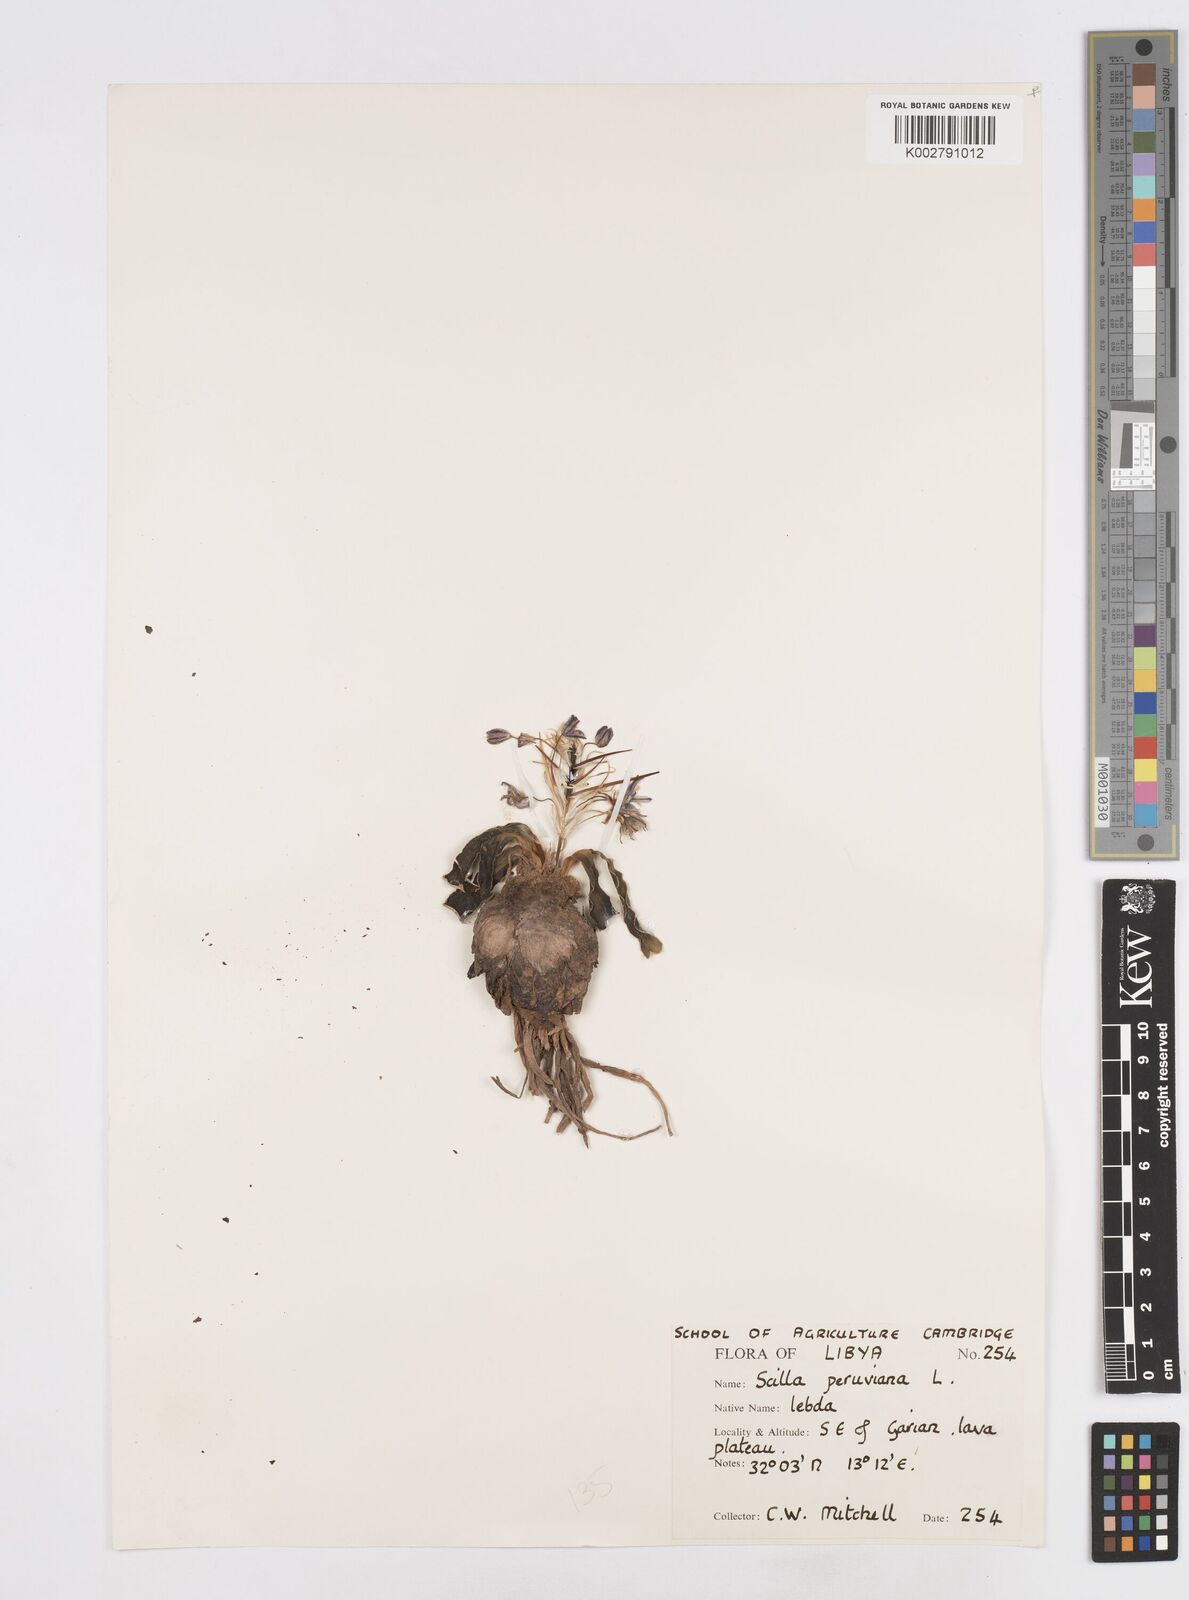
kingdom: Plantae
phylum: Tracheophyta
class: Liliopsida
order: Asparagales
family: Asparagaceae
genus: Scilla
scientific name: Scilla peruviana
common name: Portuguese squill
